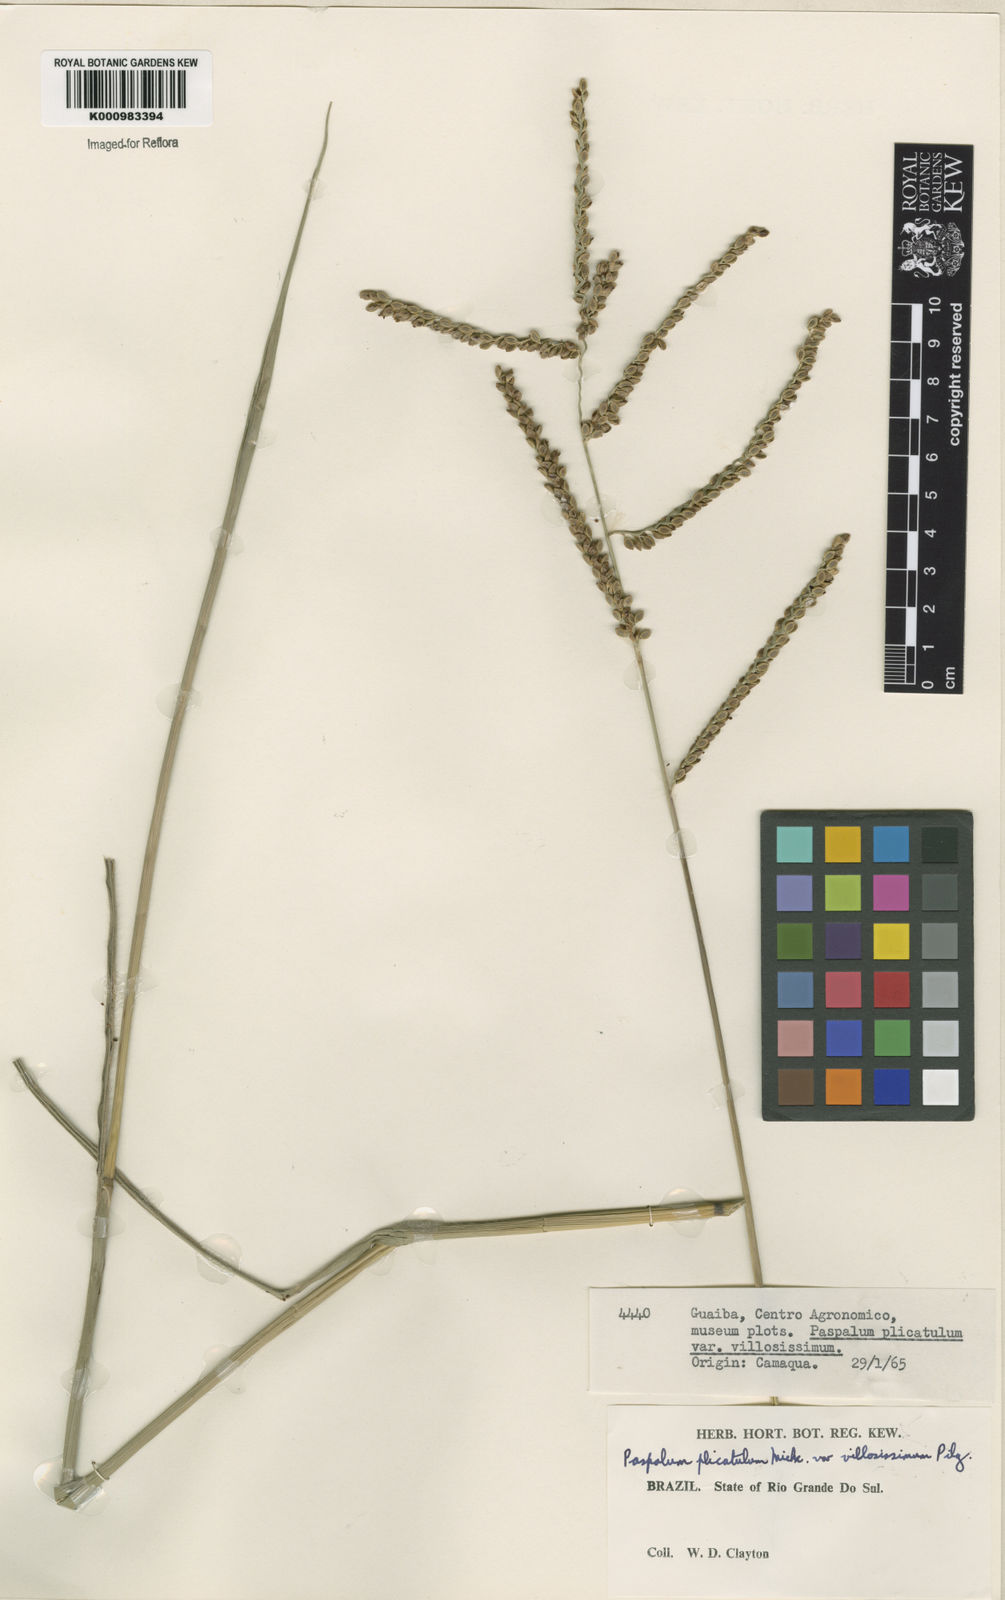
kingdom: Plantae
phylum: Tracheophyta
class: Liliopsida
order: Poales
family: Poaceae
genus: Paspalum
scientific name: Paspalum guenoarum
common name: Wintergreen paspalum
